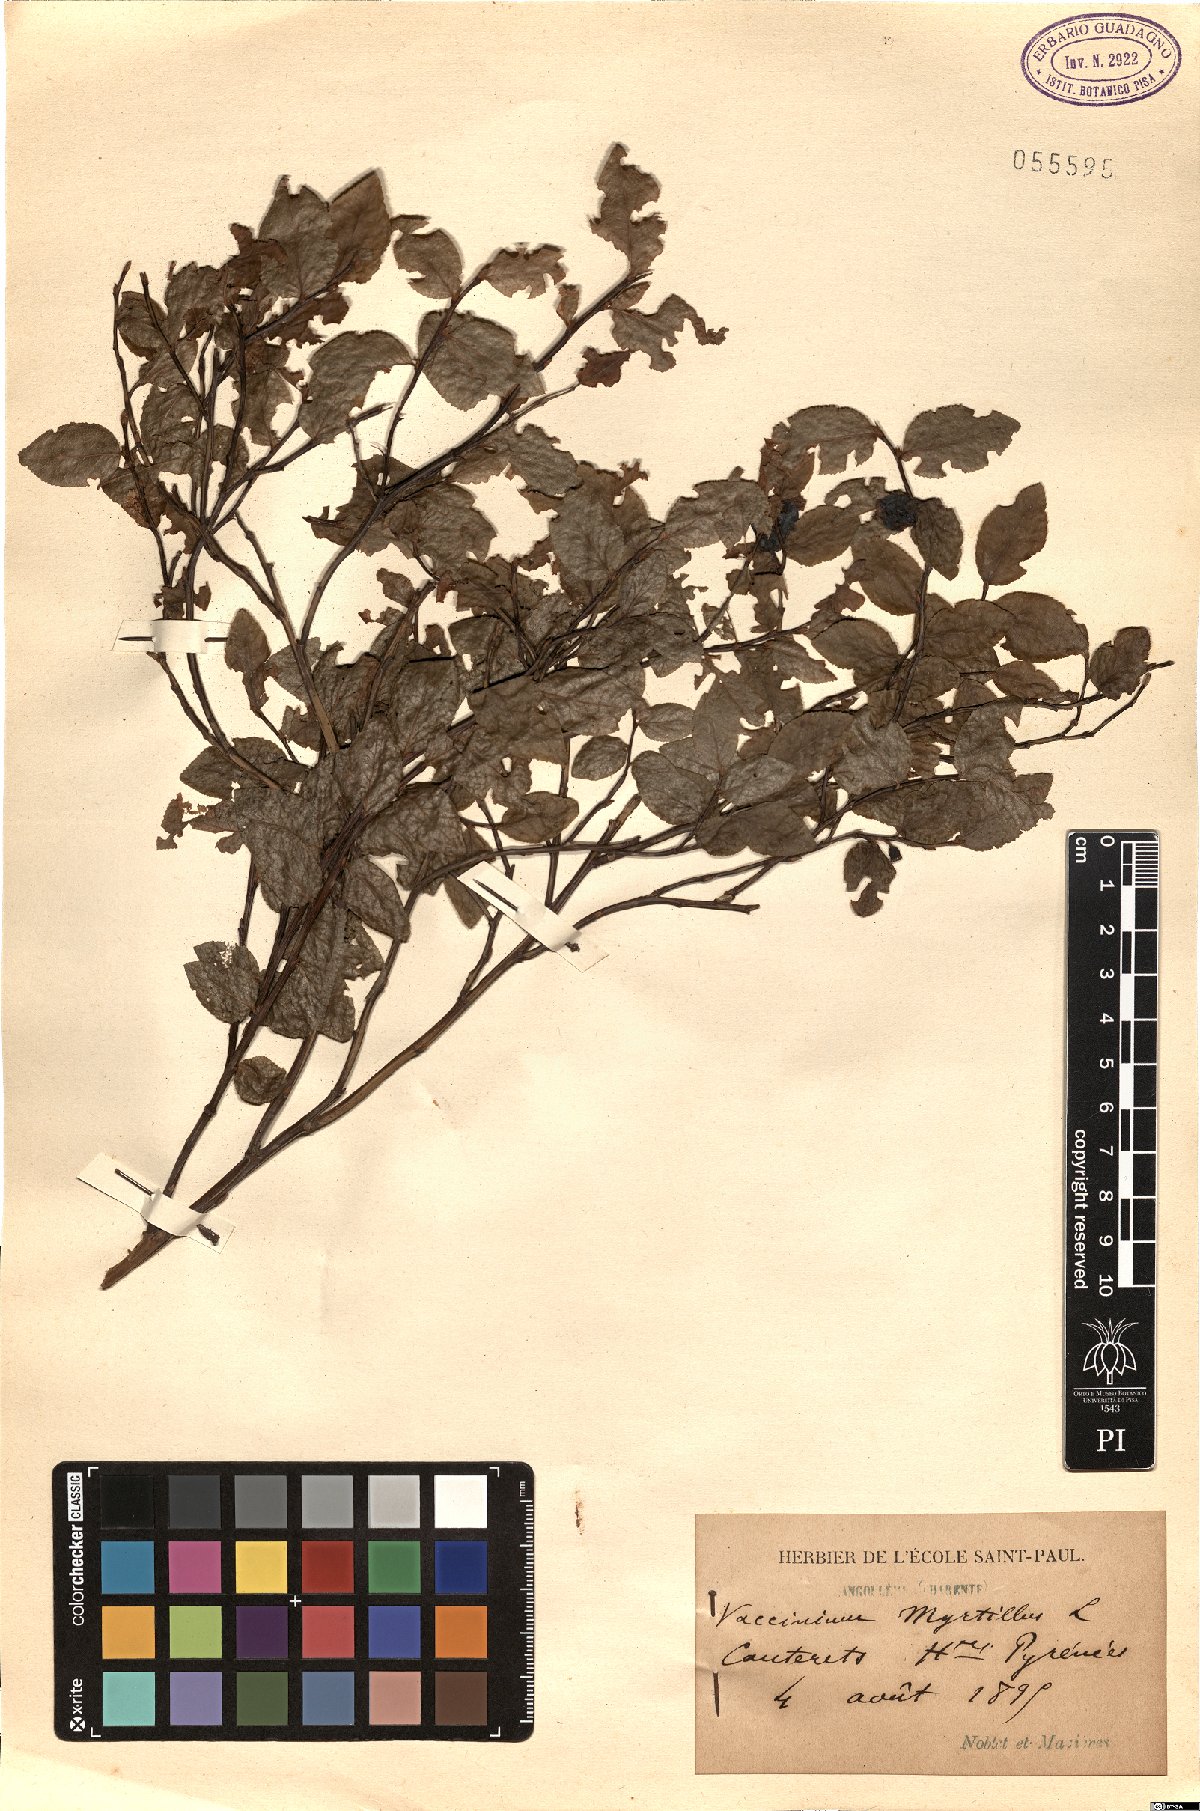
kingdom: Plantae
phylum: Tracheophyta
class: Magnoliopsida
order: Ericales
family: Ericaceae
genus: Vaccinium
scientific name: Vaccinium myrtillus
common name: Bilberry
